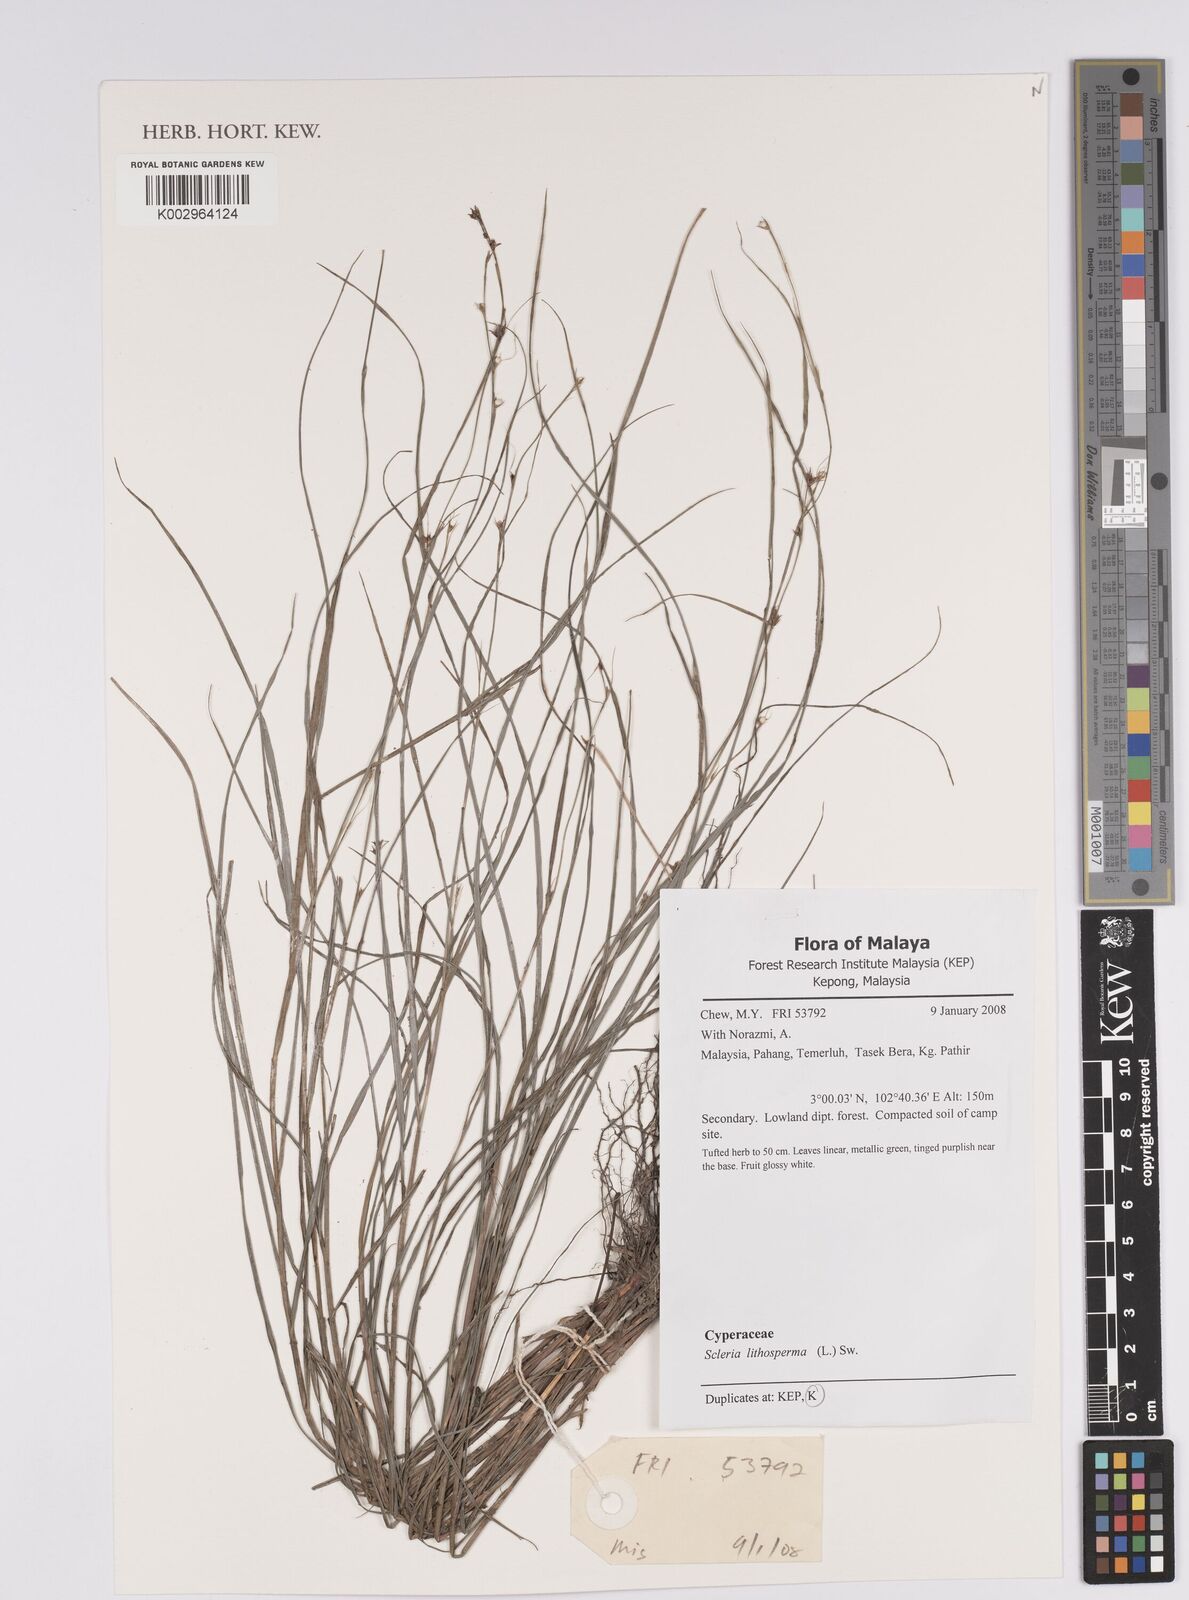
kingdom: Plantae
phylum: Tracheophyta
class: Liliopsida
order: Poales
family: Cyperaceae
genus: Scleria
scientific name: Scleria lithosperma
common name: Florida keys nut-rush
